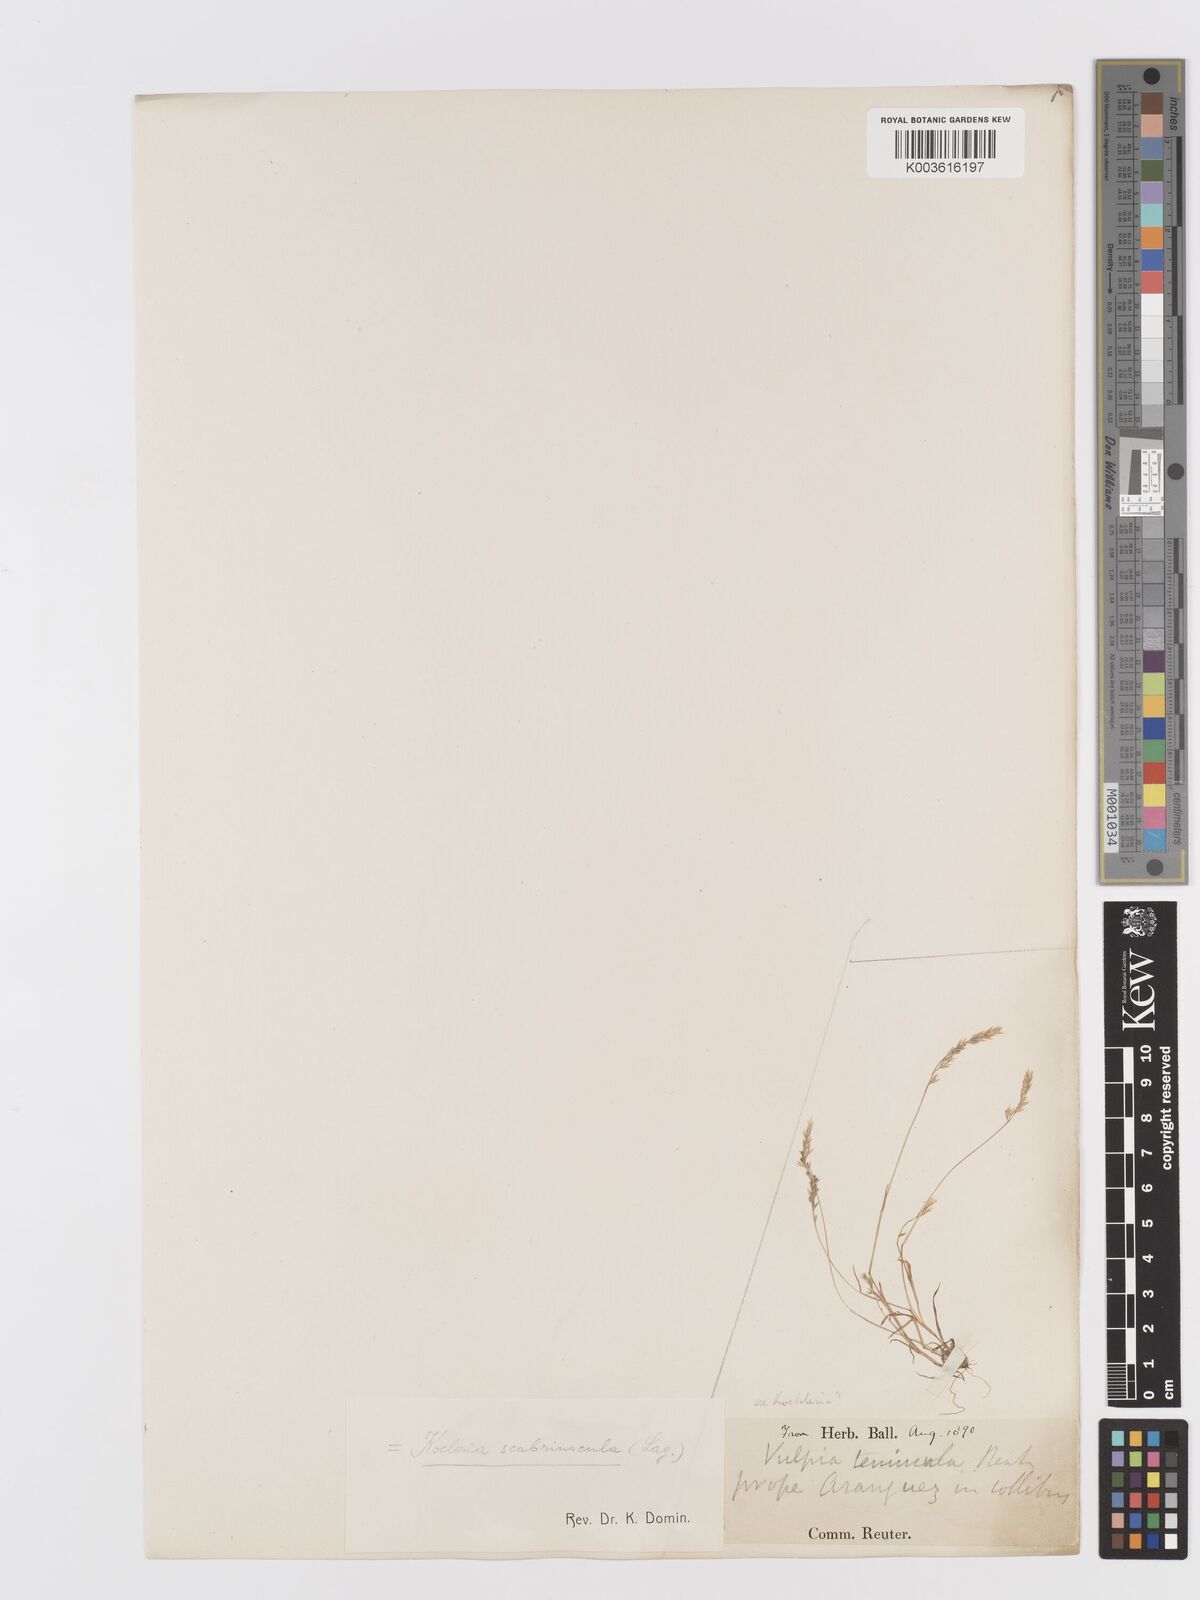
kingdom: Plantae
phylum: Tracheophyta
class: Liliopsida
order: Poales
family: Poaceae
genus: Trisetaria
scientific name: Trisetaria scabriuscula
